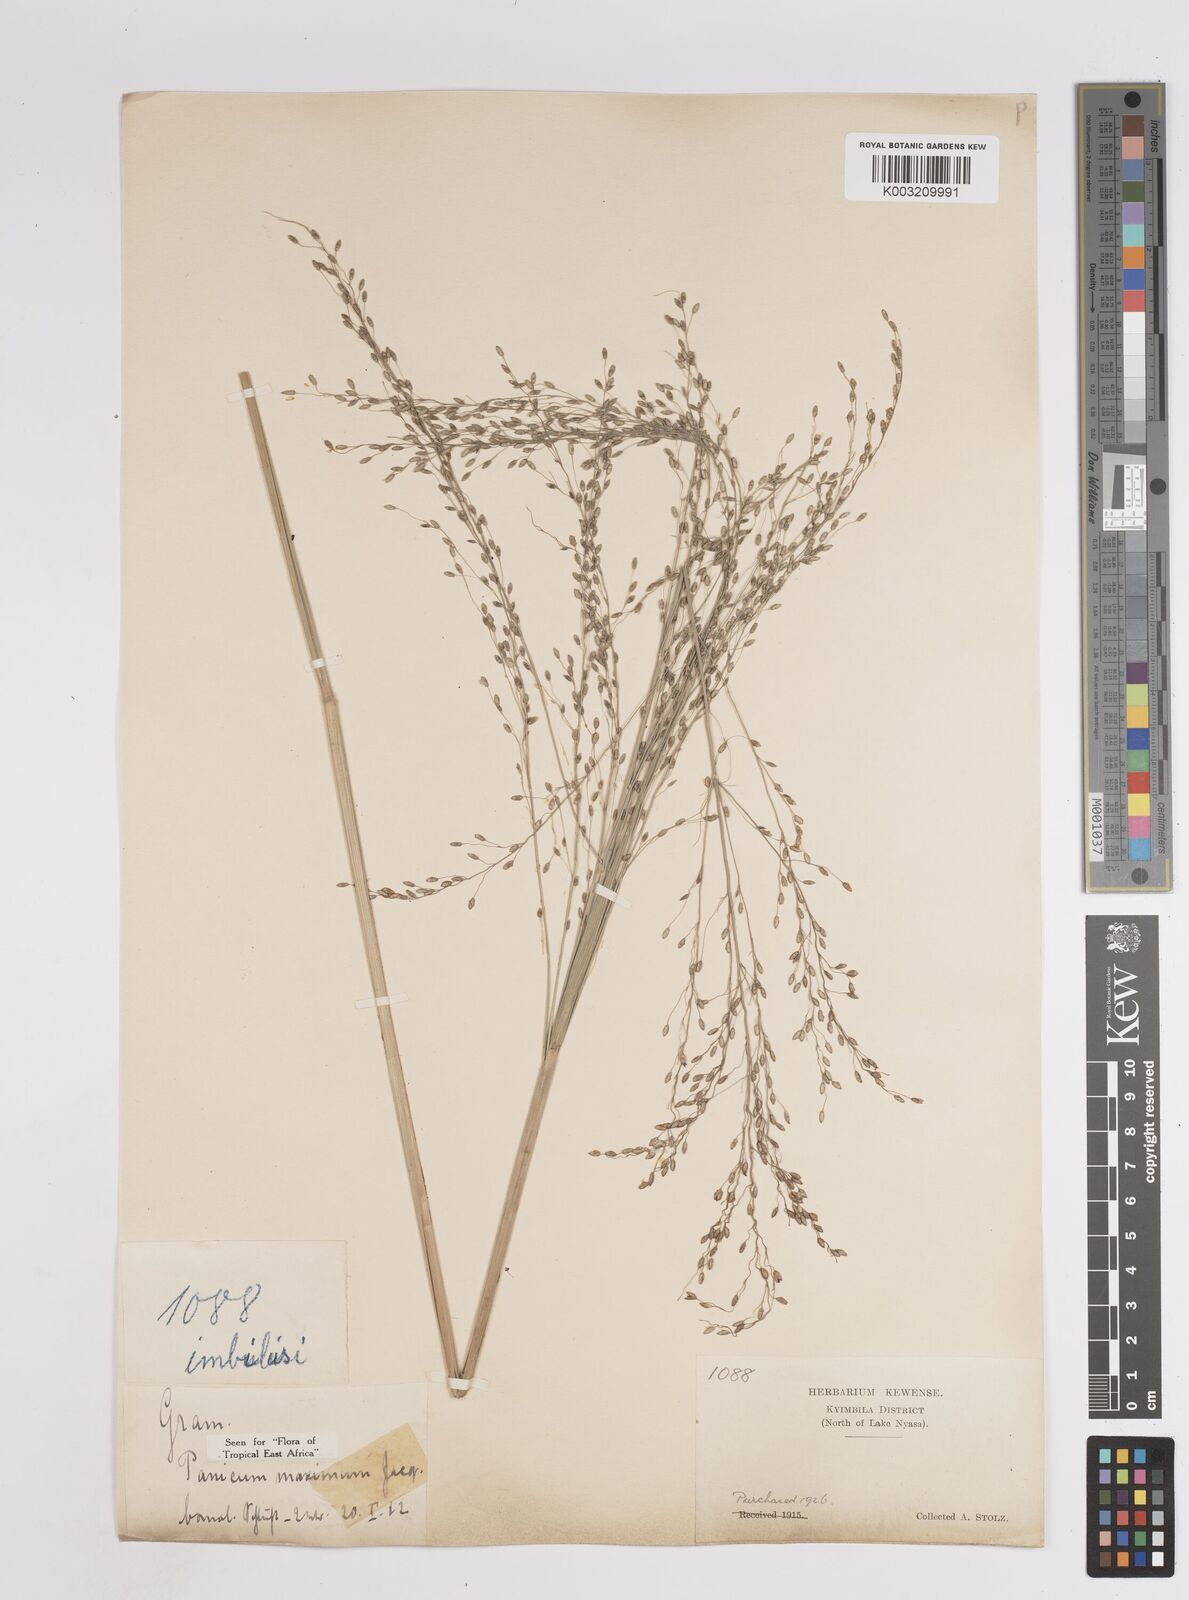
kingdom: Plantae
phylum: Tracheophyta
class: Liliopsida
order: Poales
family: Poaceae
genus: Megathyrsus
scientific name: Megathyrsus maximus
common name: Guineagrass
